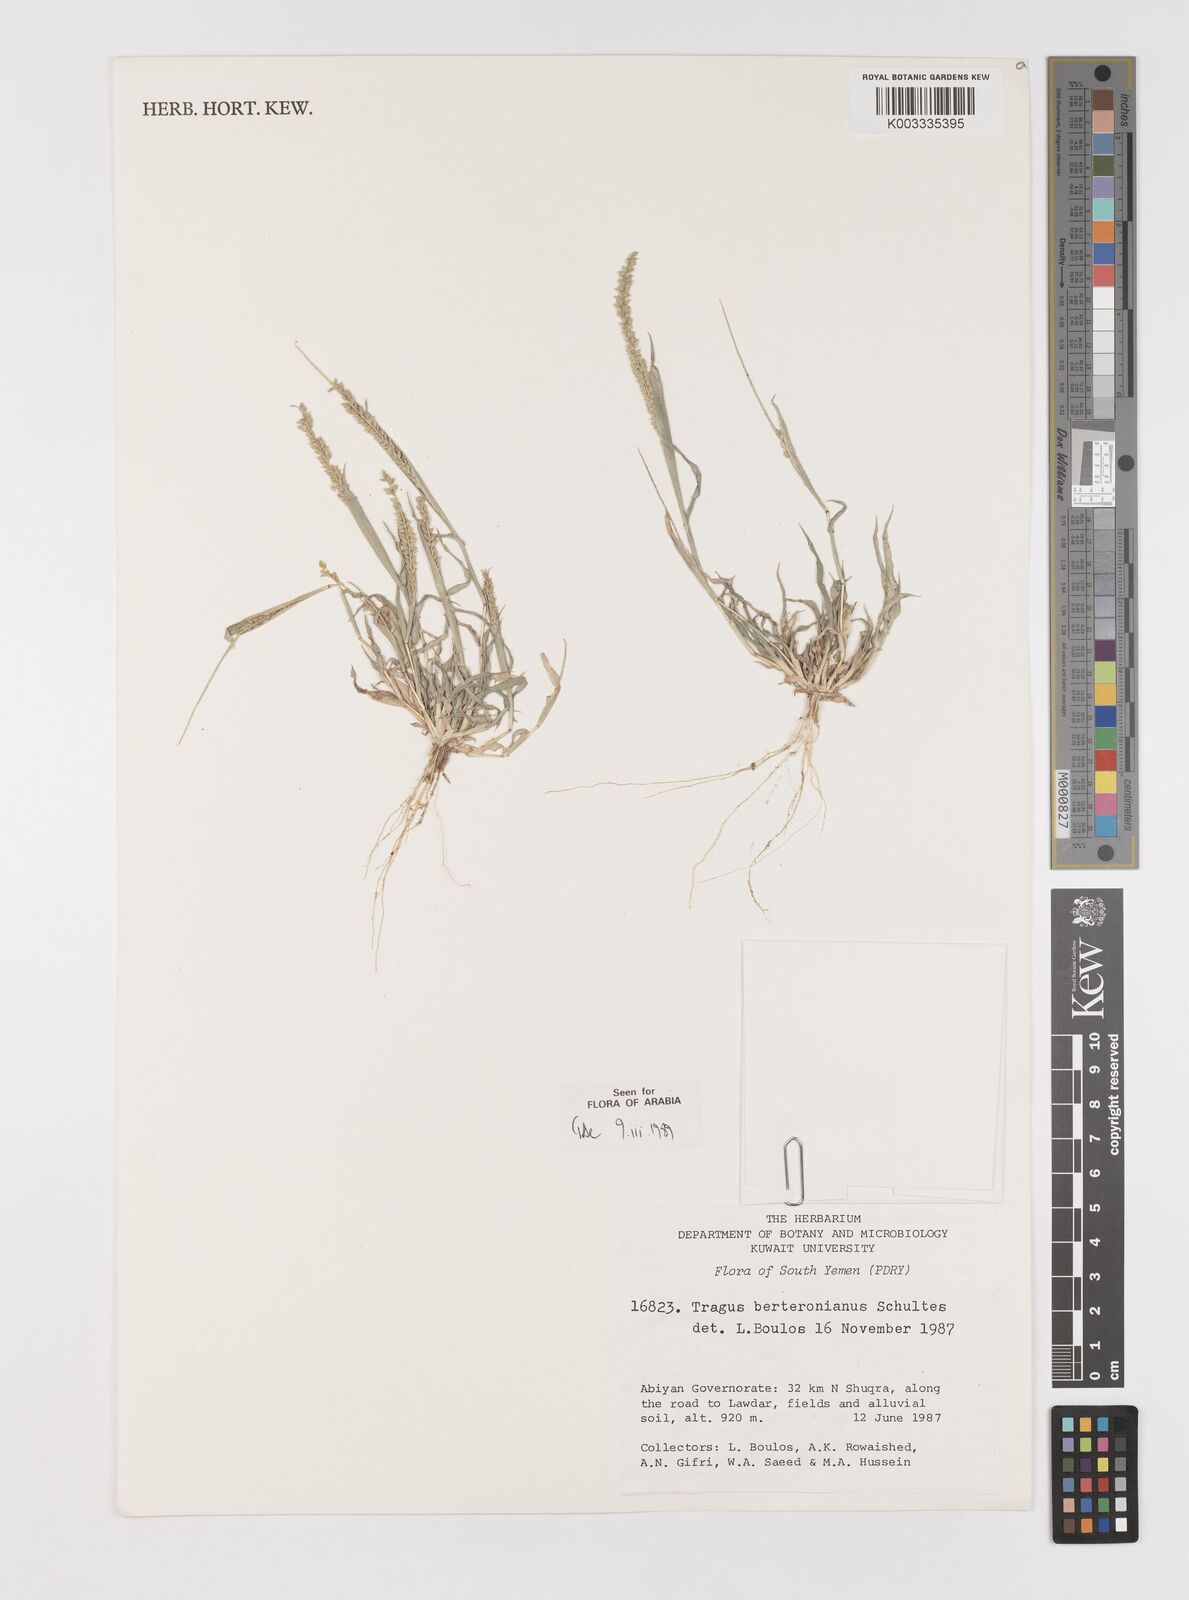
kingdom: Plantae
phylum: Tracheophyta
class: Liliopsida
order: Poales
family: Poaceae
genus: Tragus
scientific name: Tragus berteronianus
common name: African bur-grass
